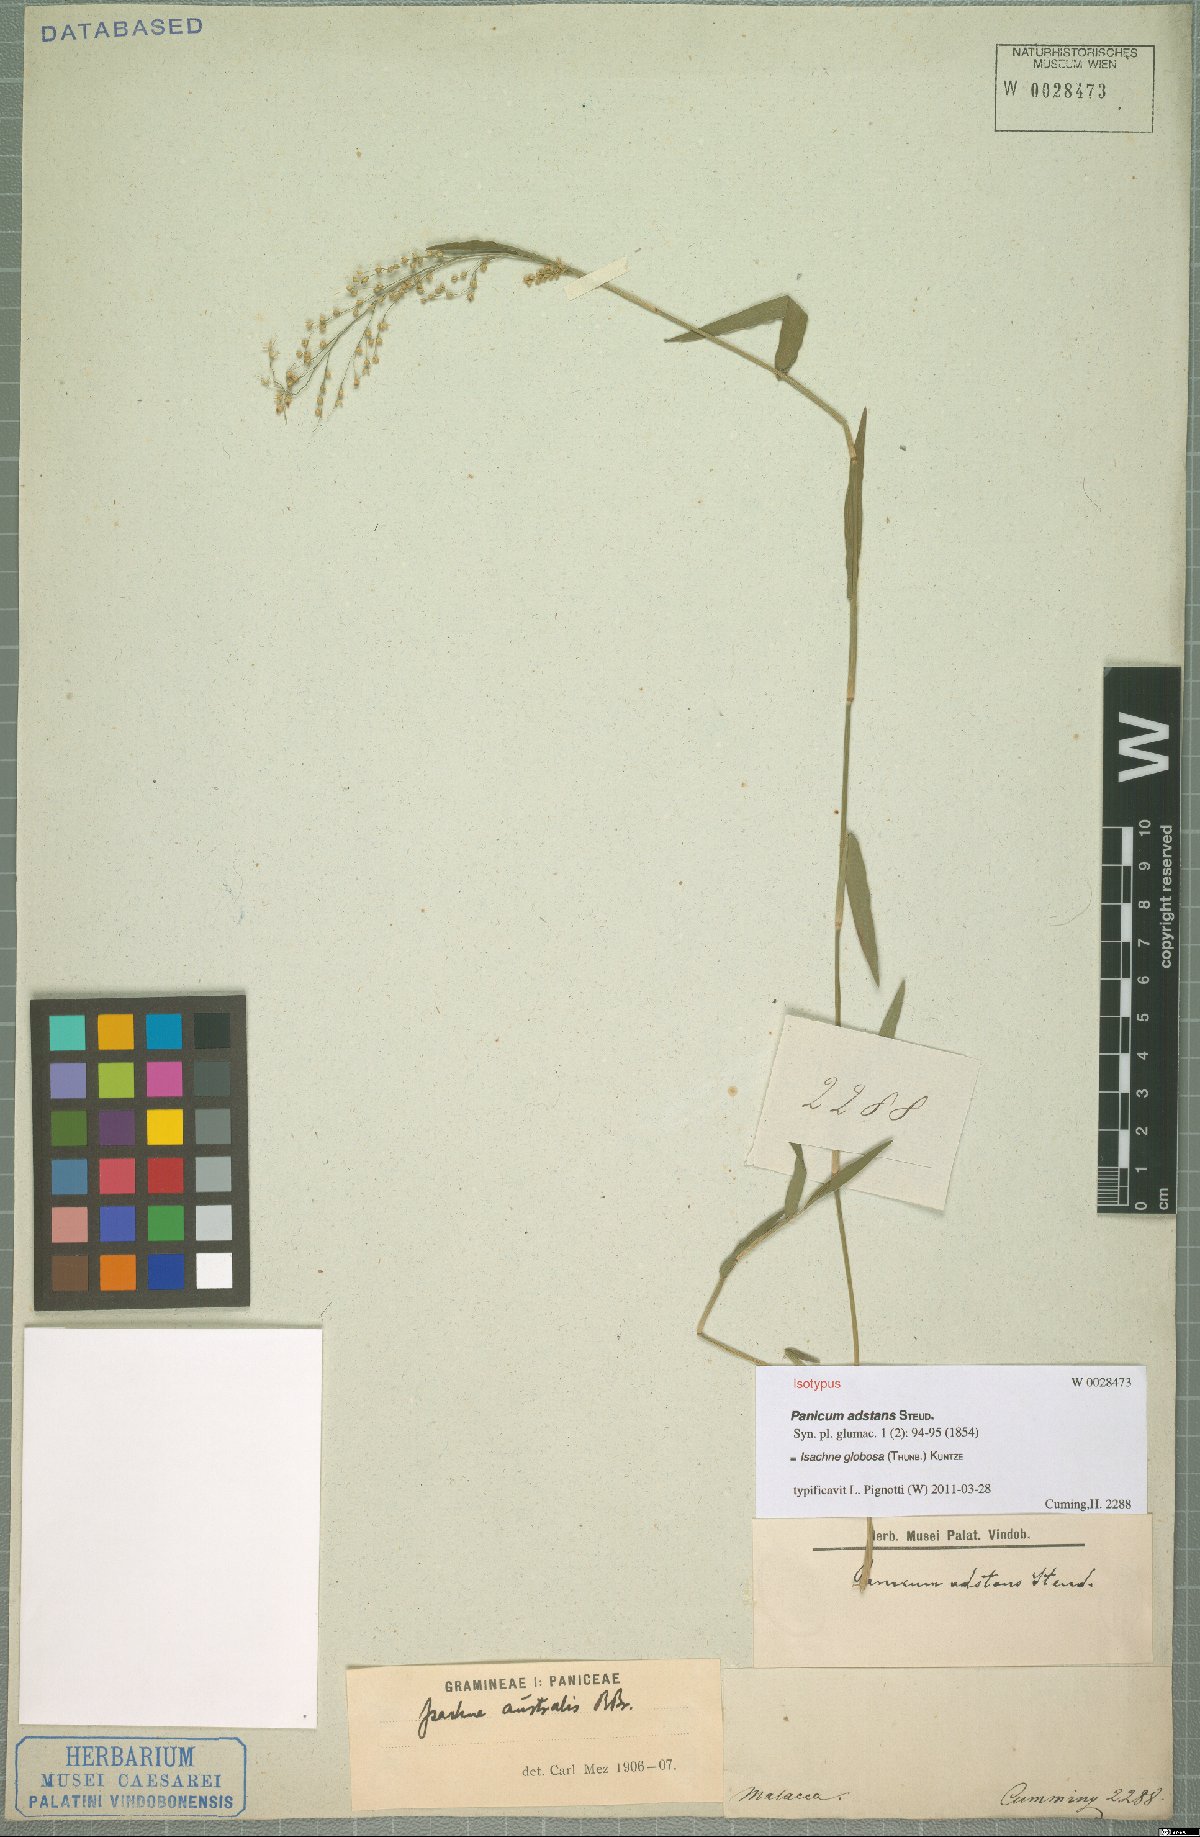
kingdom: Plantae
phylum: Tracheophyta
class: Liliopsida
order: Poales
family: Poaceae
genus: Isachne
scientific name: Isachne globosa
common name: Swamp millet
